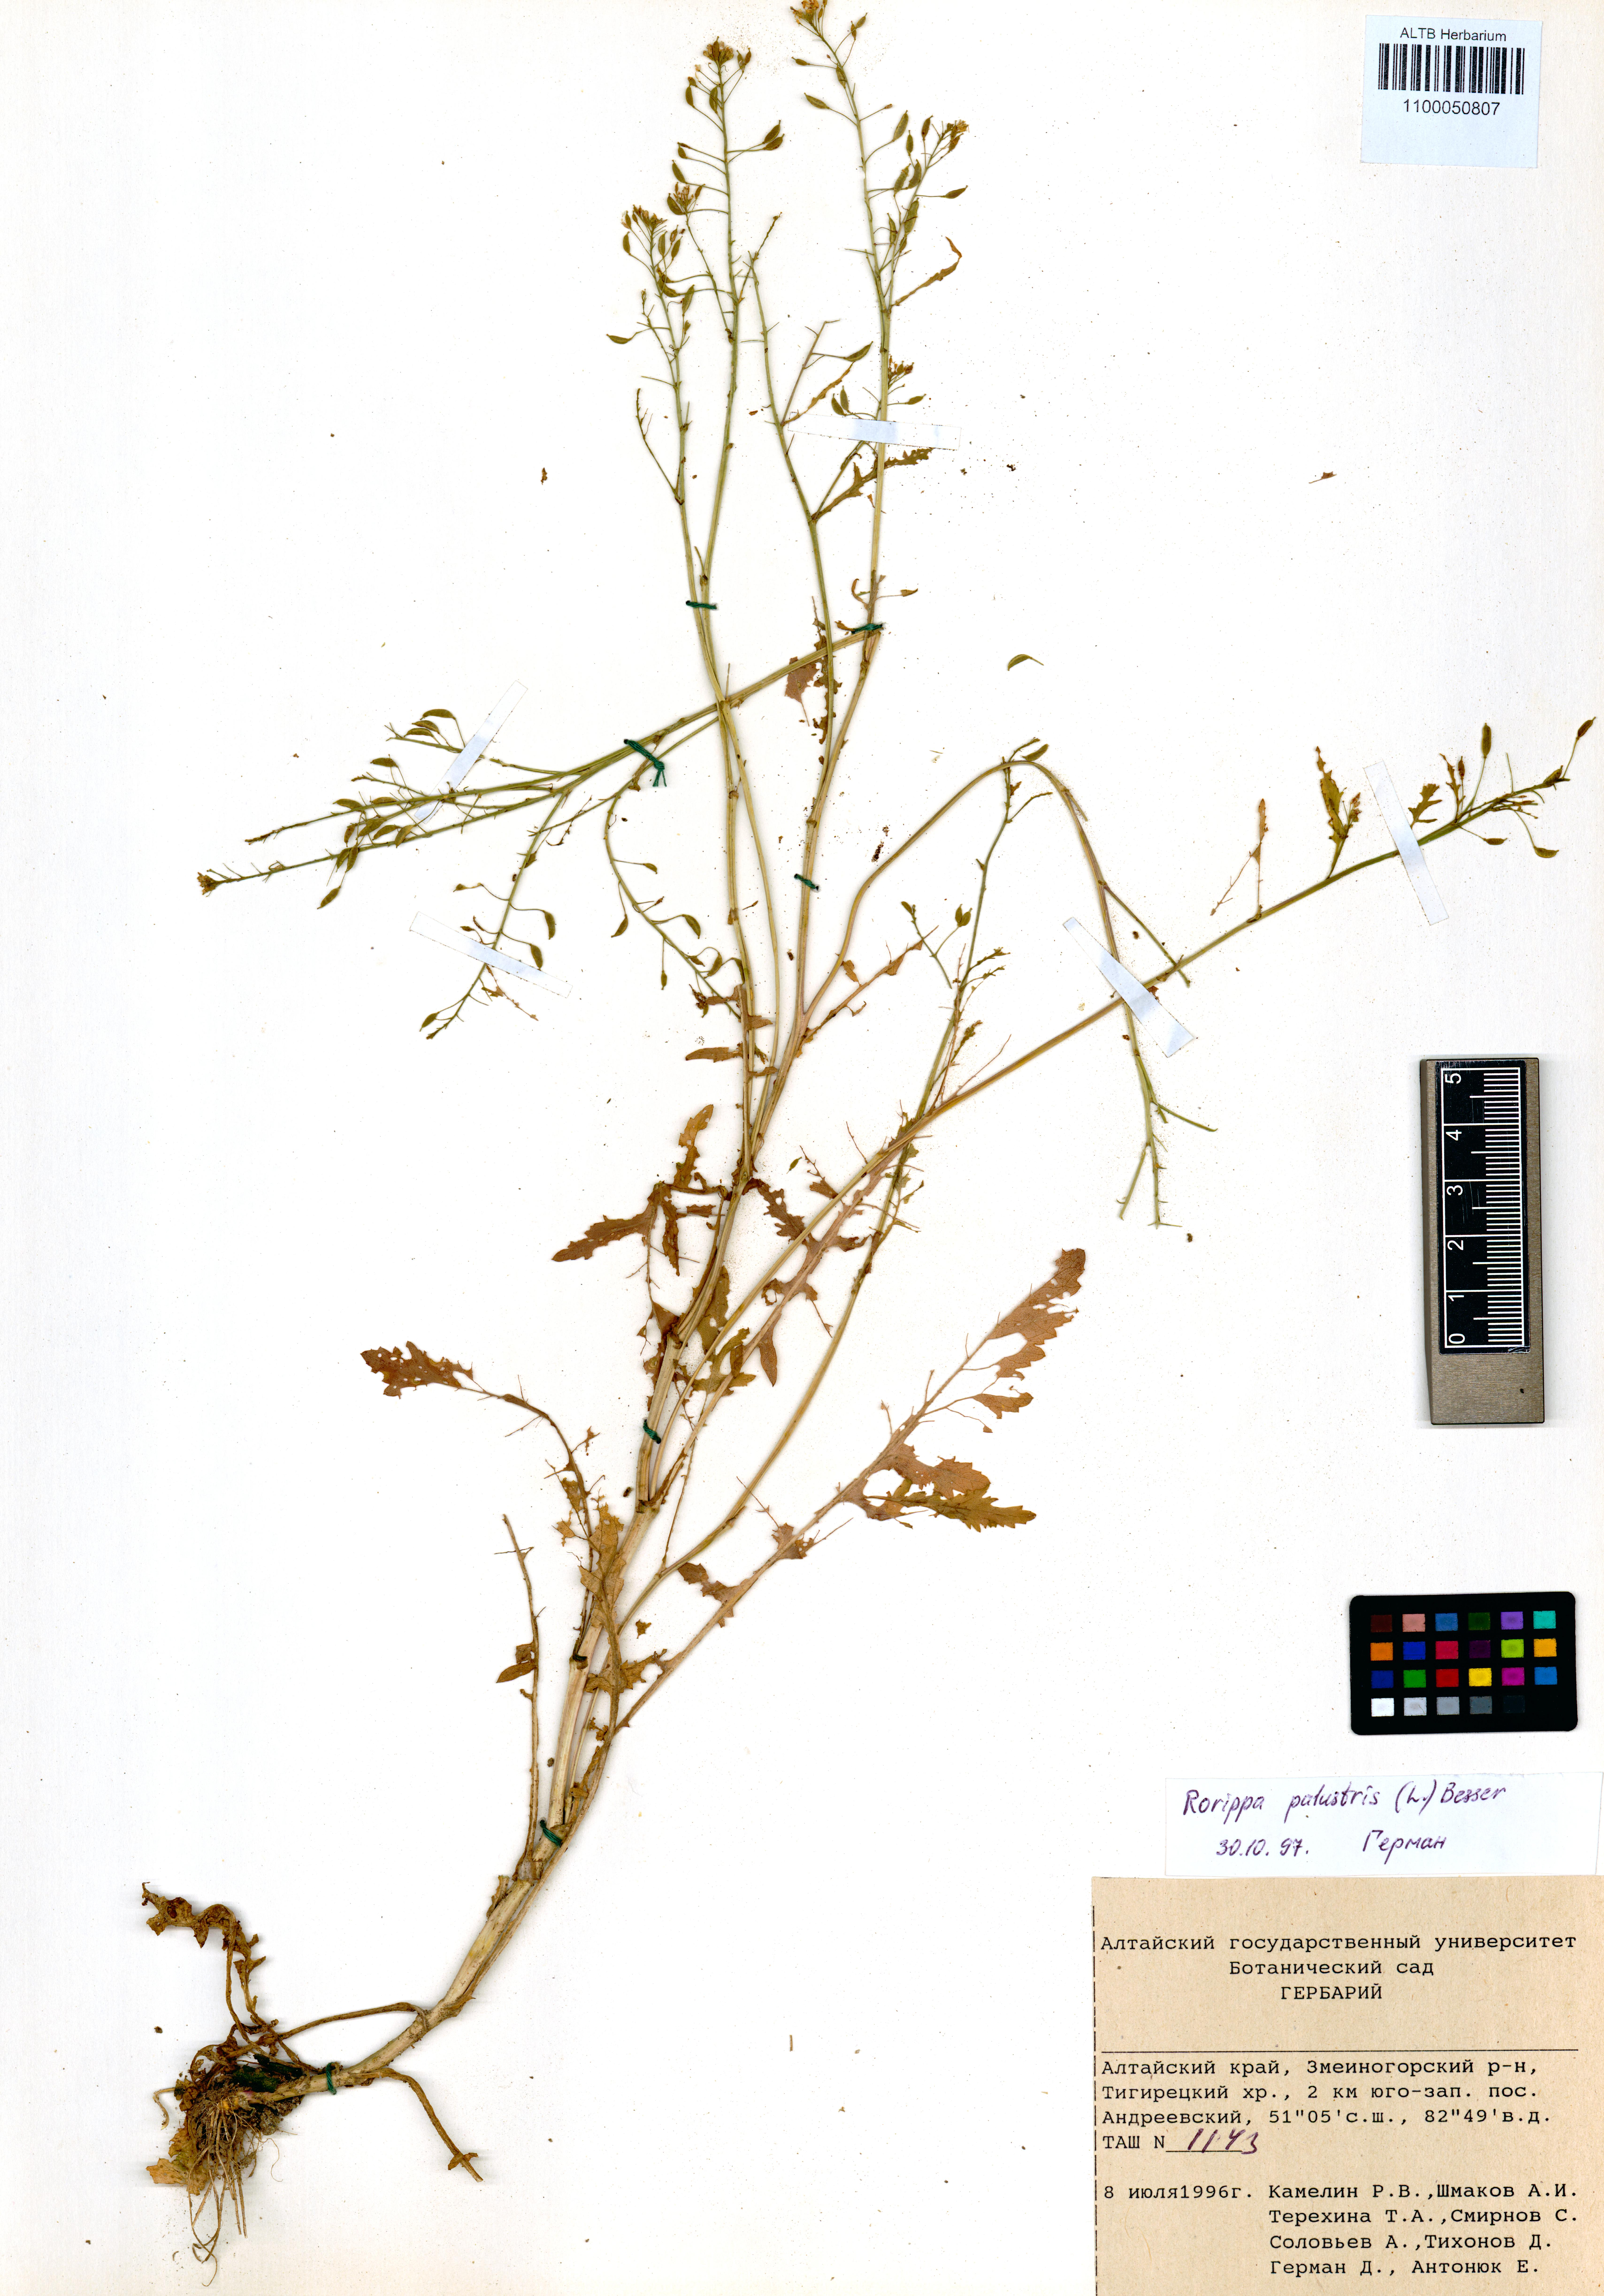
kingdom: Plantae
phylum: Tracheophyta
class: Magnoliopsida
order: Brassicales
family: Brassicaceae
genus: Rorippa
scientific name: Rorippa palustris
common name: Marsh yellow-cress
